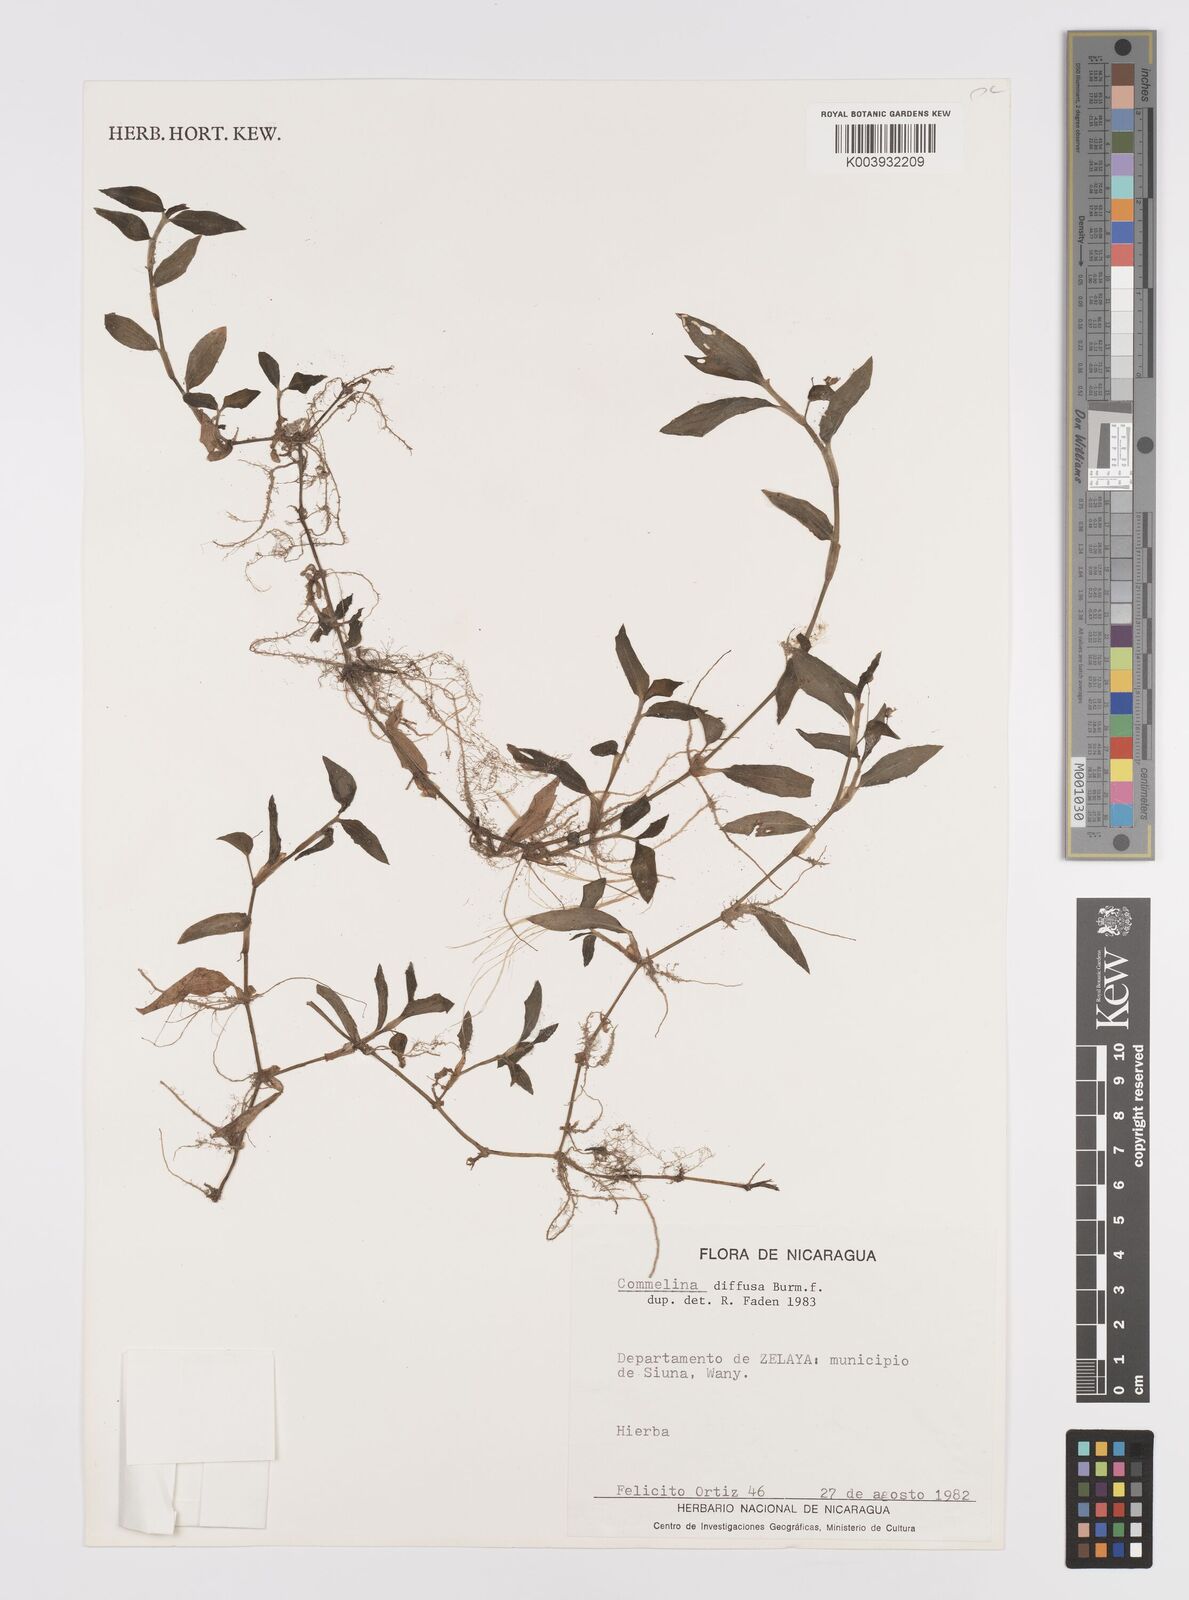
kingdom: Plantae
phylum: Tracheophyta
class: Liliopsida
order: Commelinales
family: Commelinaceae
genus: Commelina
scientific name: Commelina diffusa
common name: Climbing dayflower
